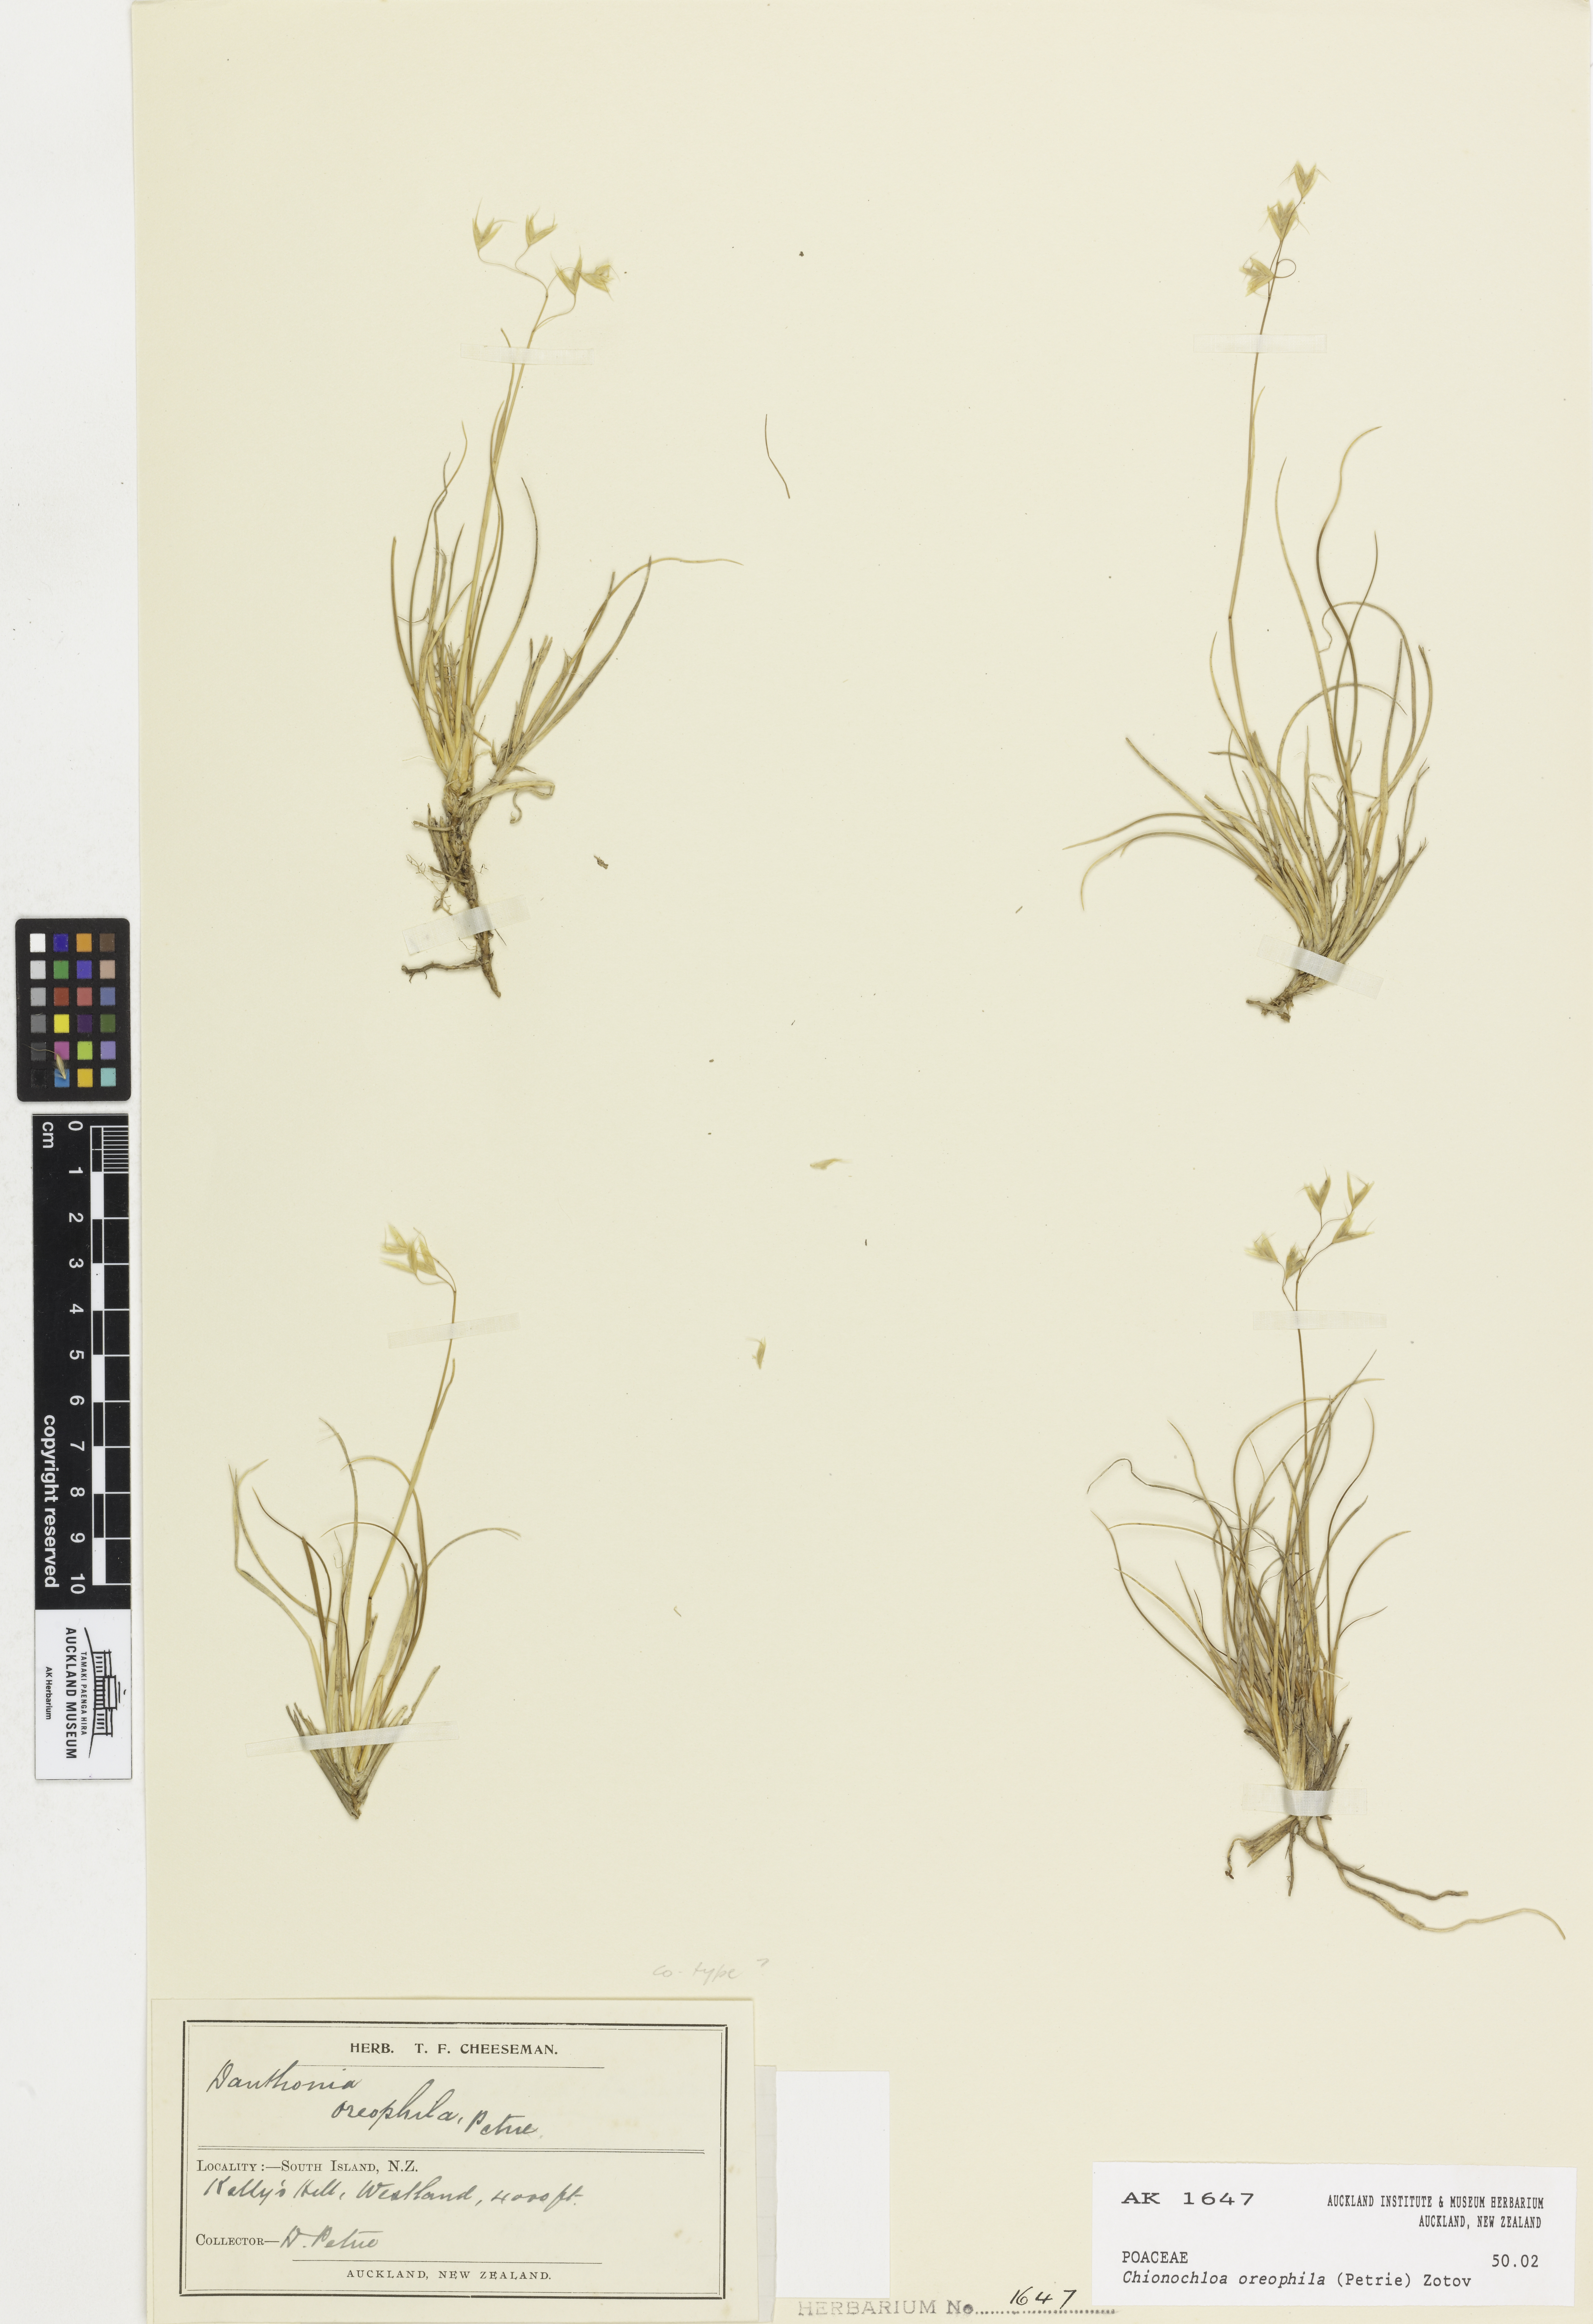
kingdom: Plantae
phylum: Tracheophyta
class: Liliopsida
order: Poales
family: Poaceae
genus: Chionochloa
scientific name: Chionochloa oreophila
